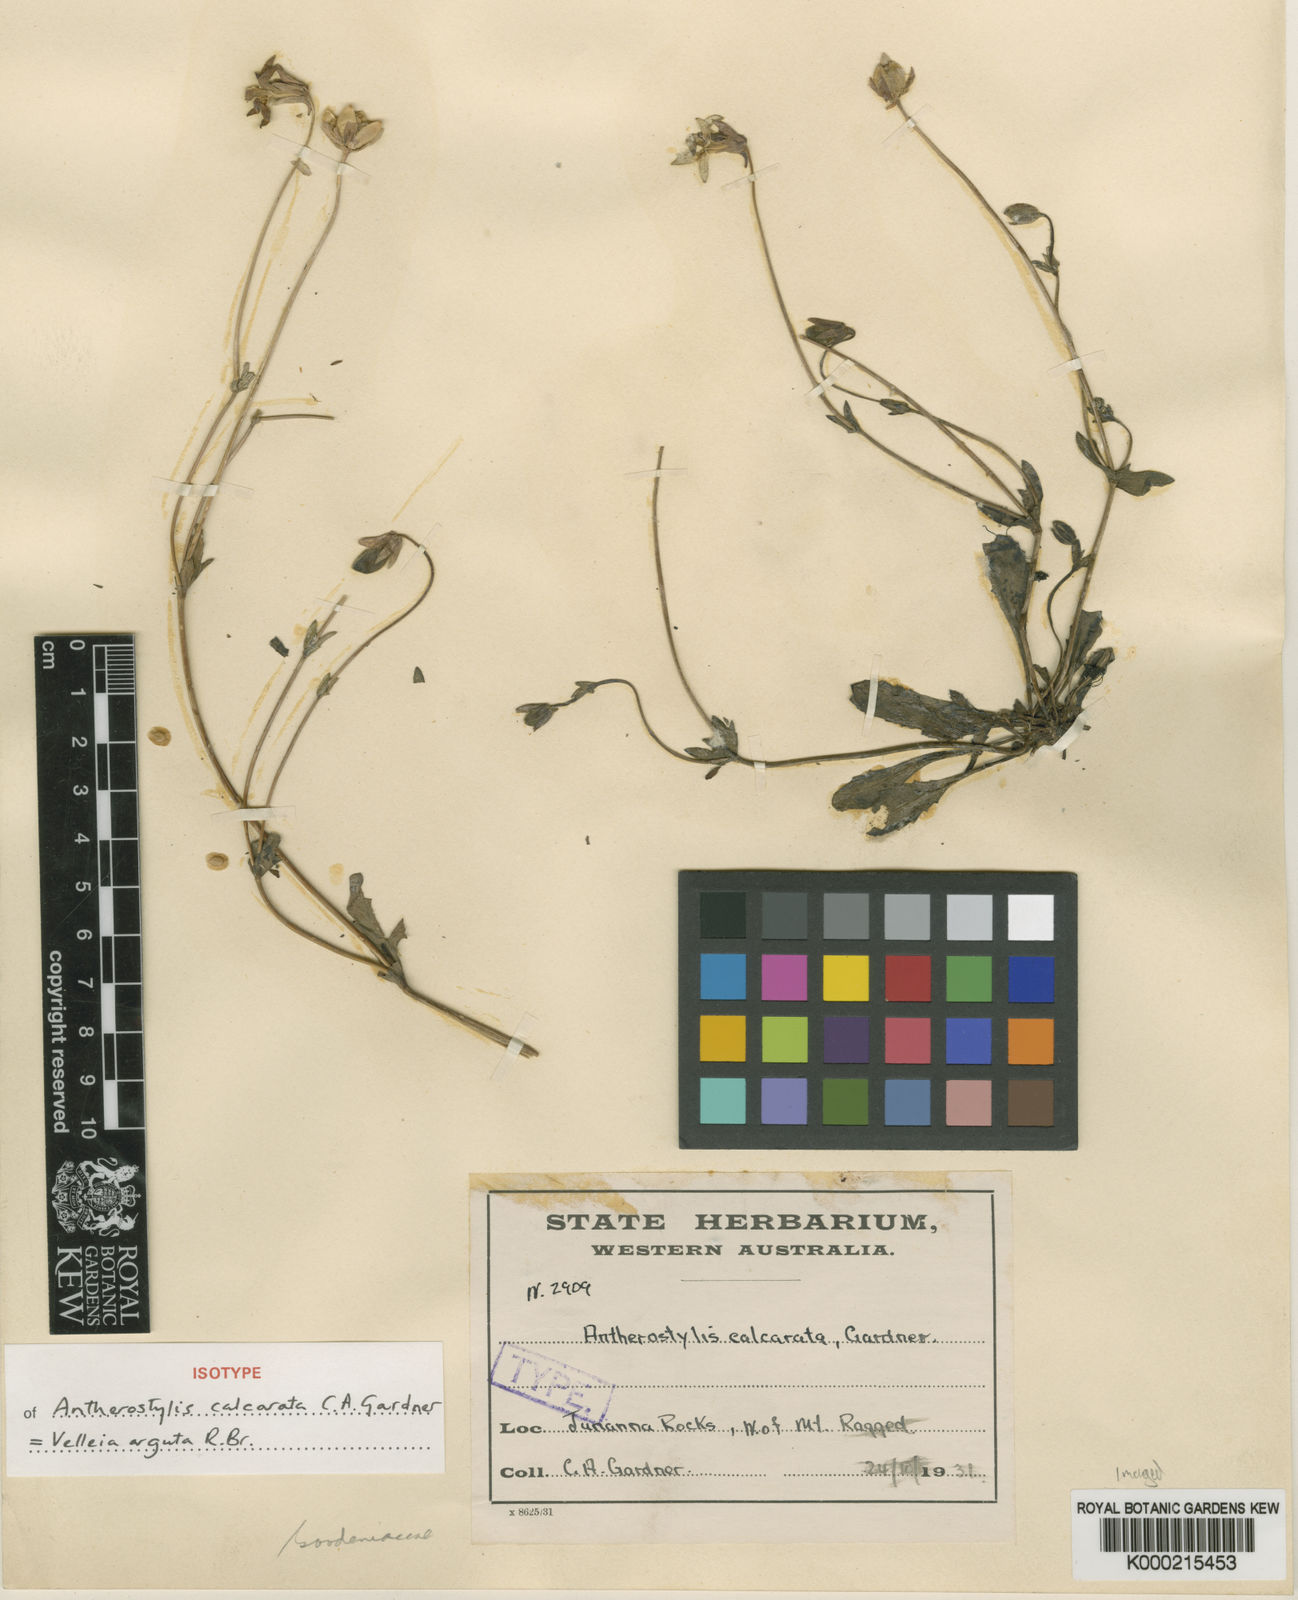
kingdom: Plantae
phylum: Tracheophyta
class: Magnoliopsida
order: Asterales
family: Goodeniaceae
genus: Goodenia
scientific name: Goodenia arguta
